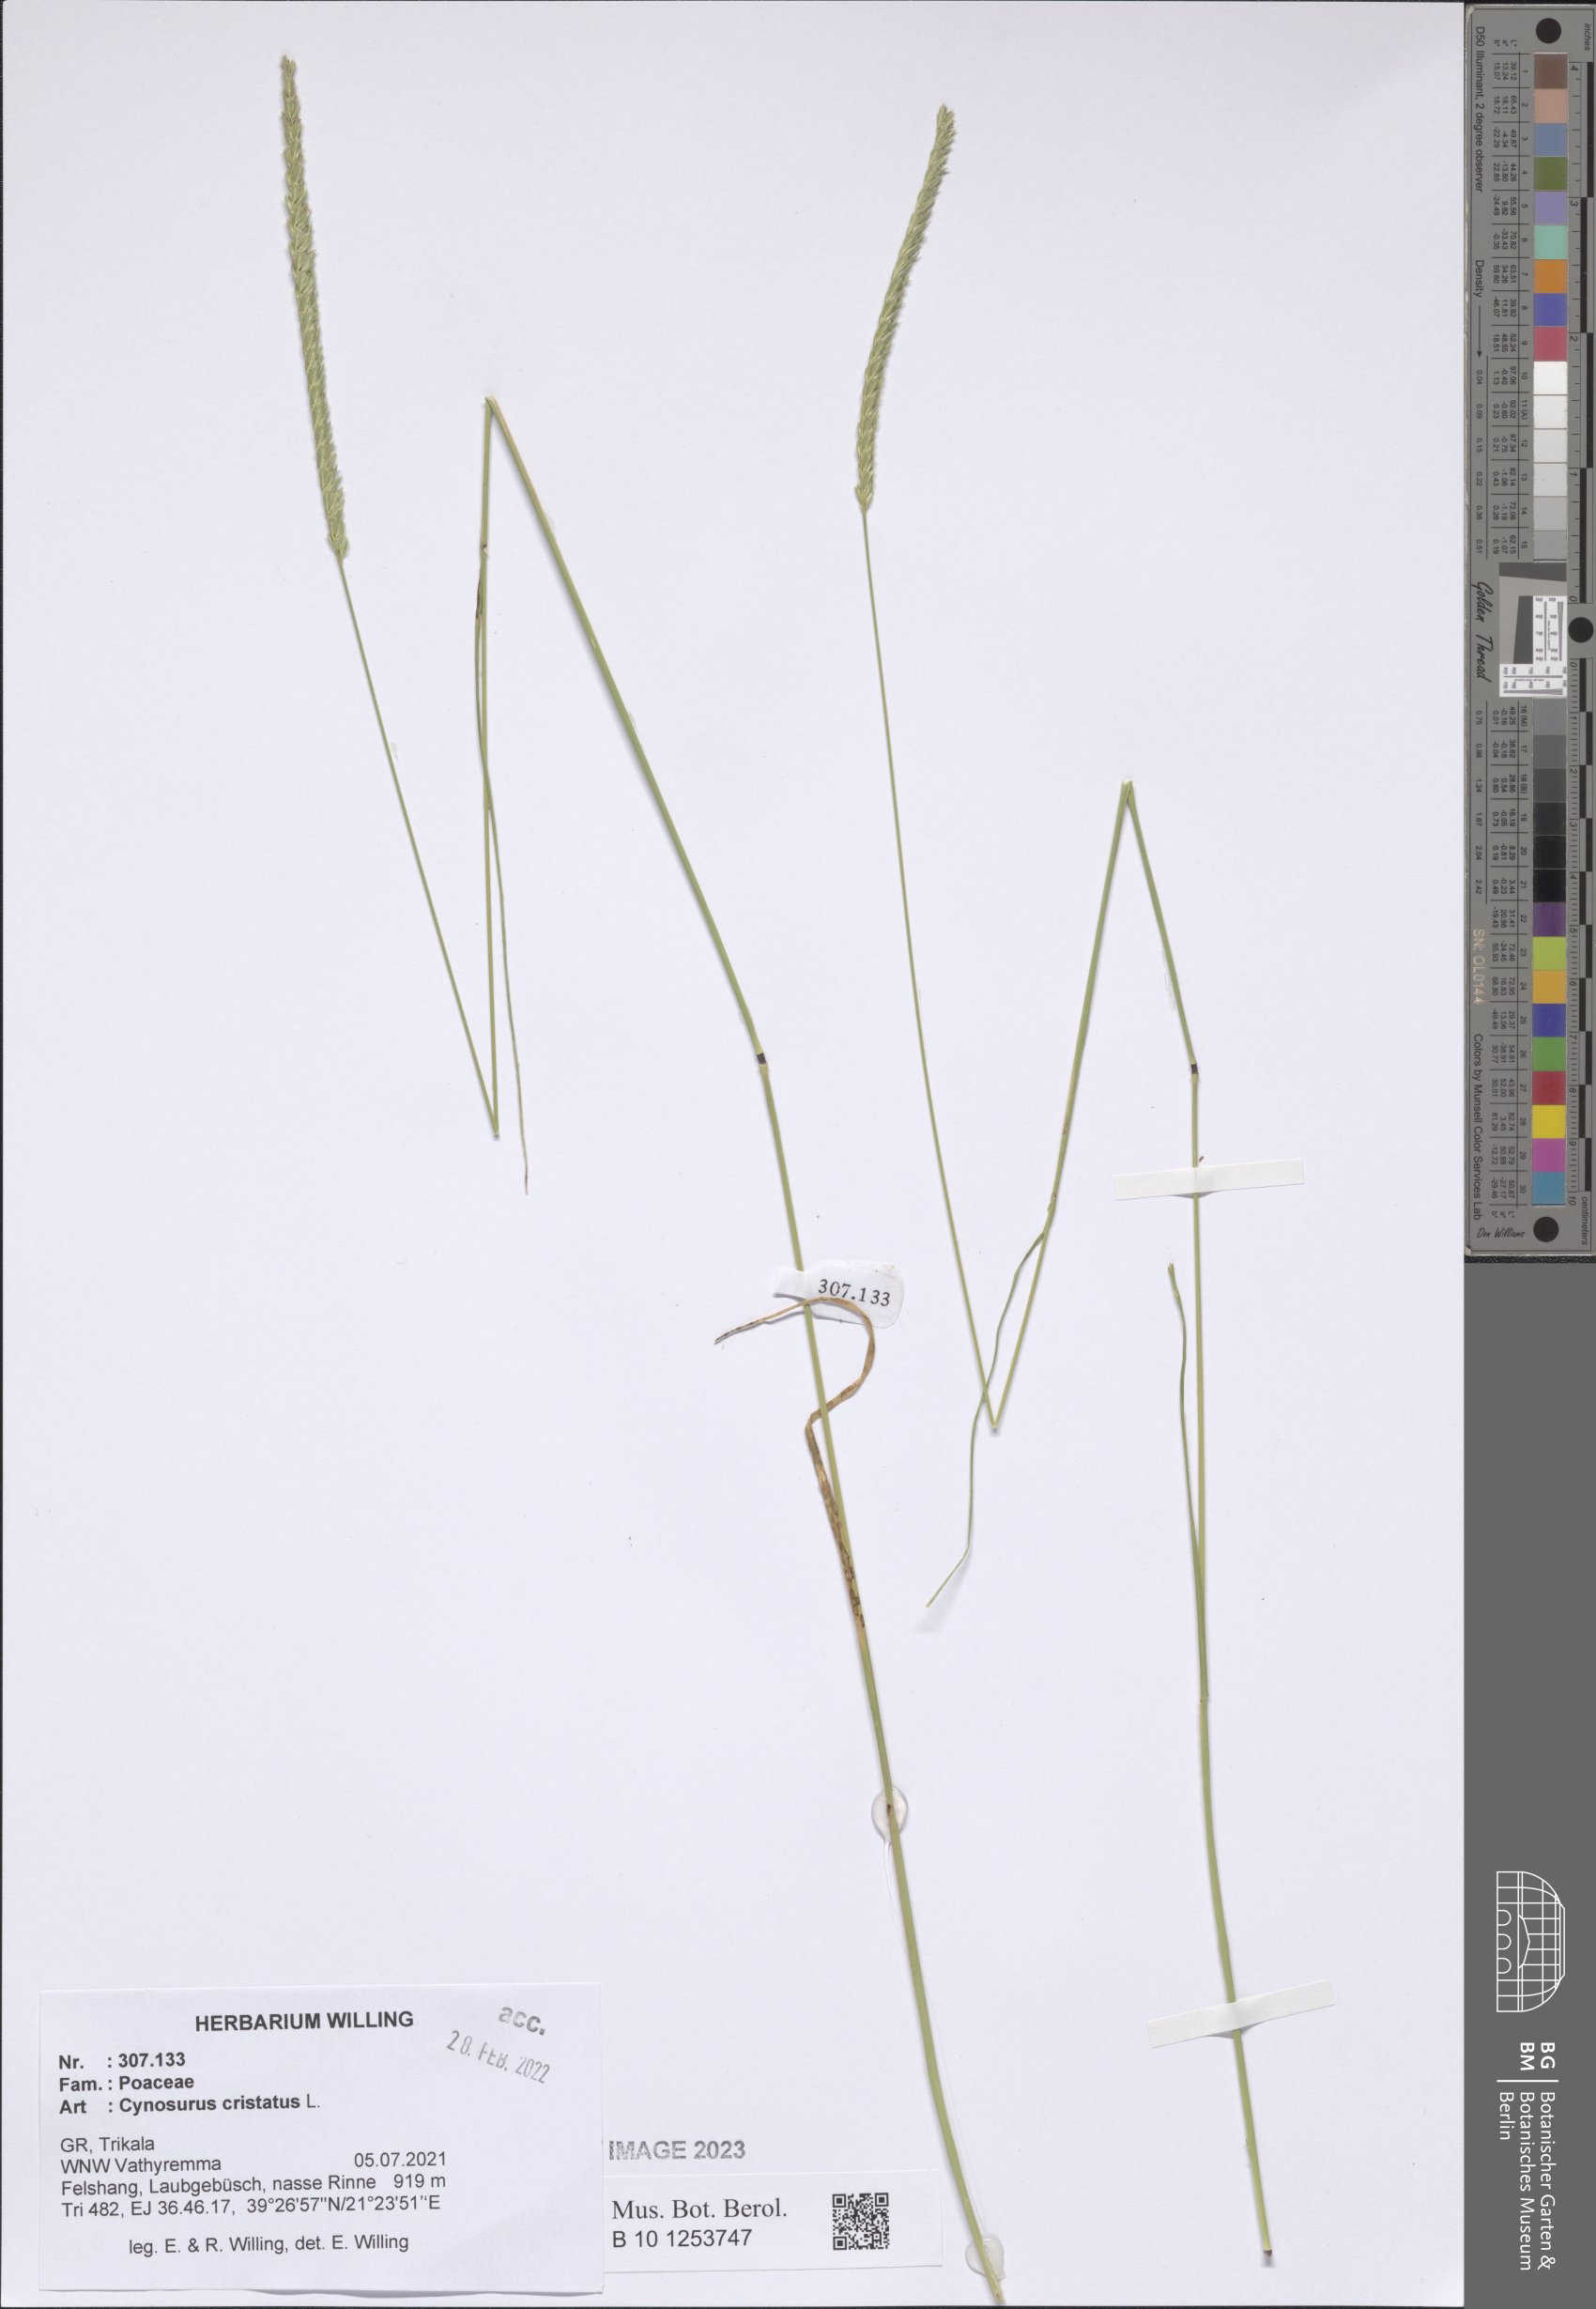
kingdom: Plantae
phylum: Tracheophyta
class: Liliopsida
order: Poales
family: Poaceae
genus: Cynosurus
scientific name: Cynosurus cristatus
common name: Crested dog's-tail
